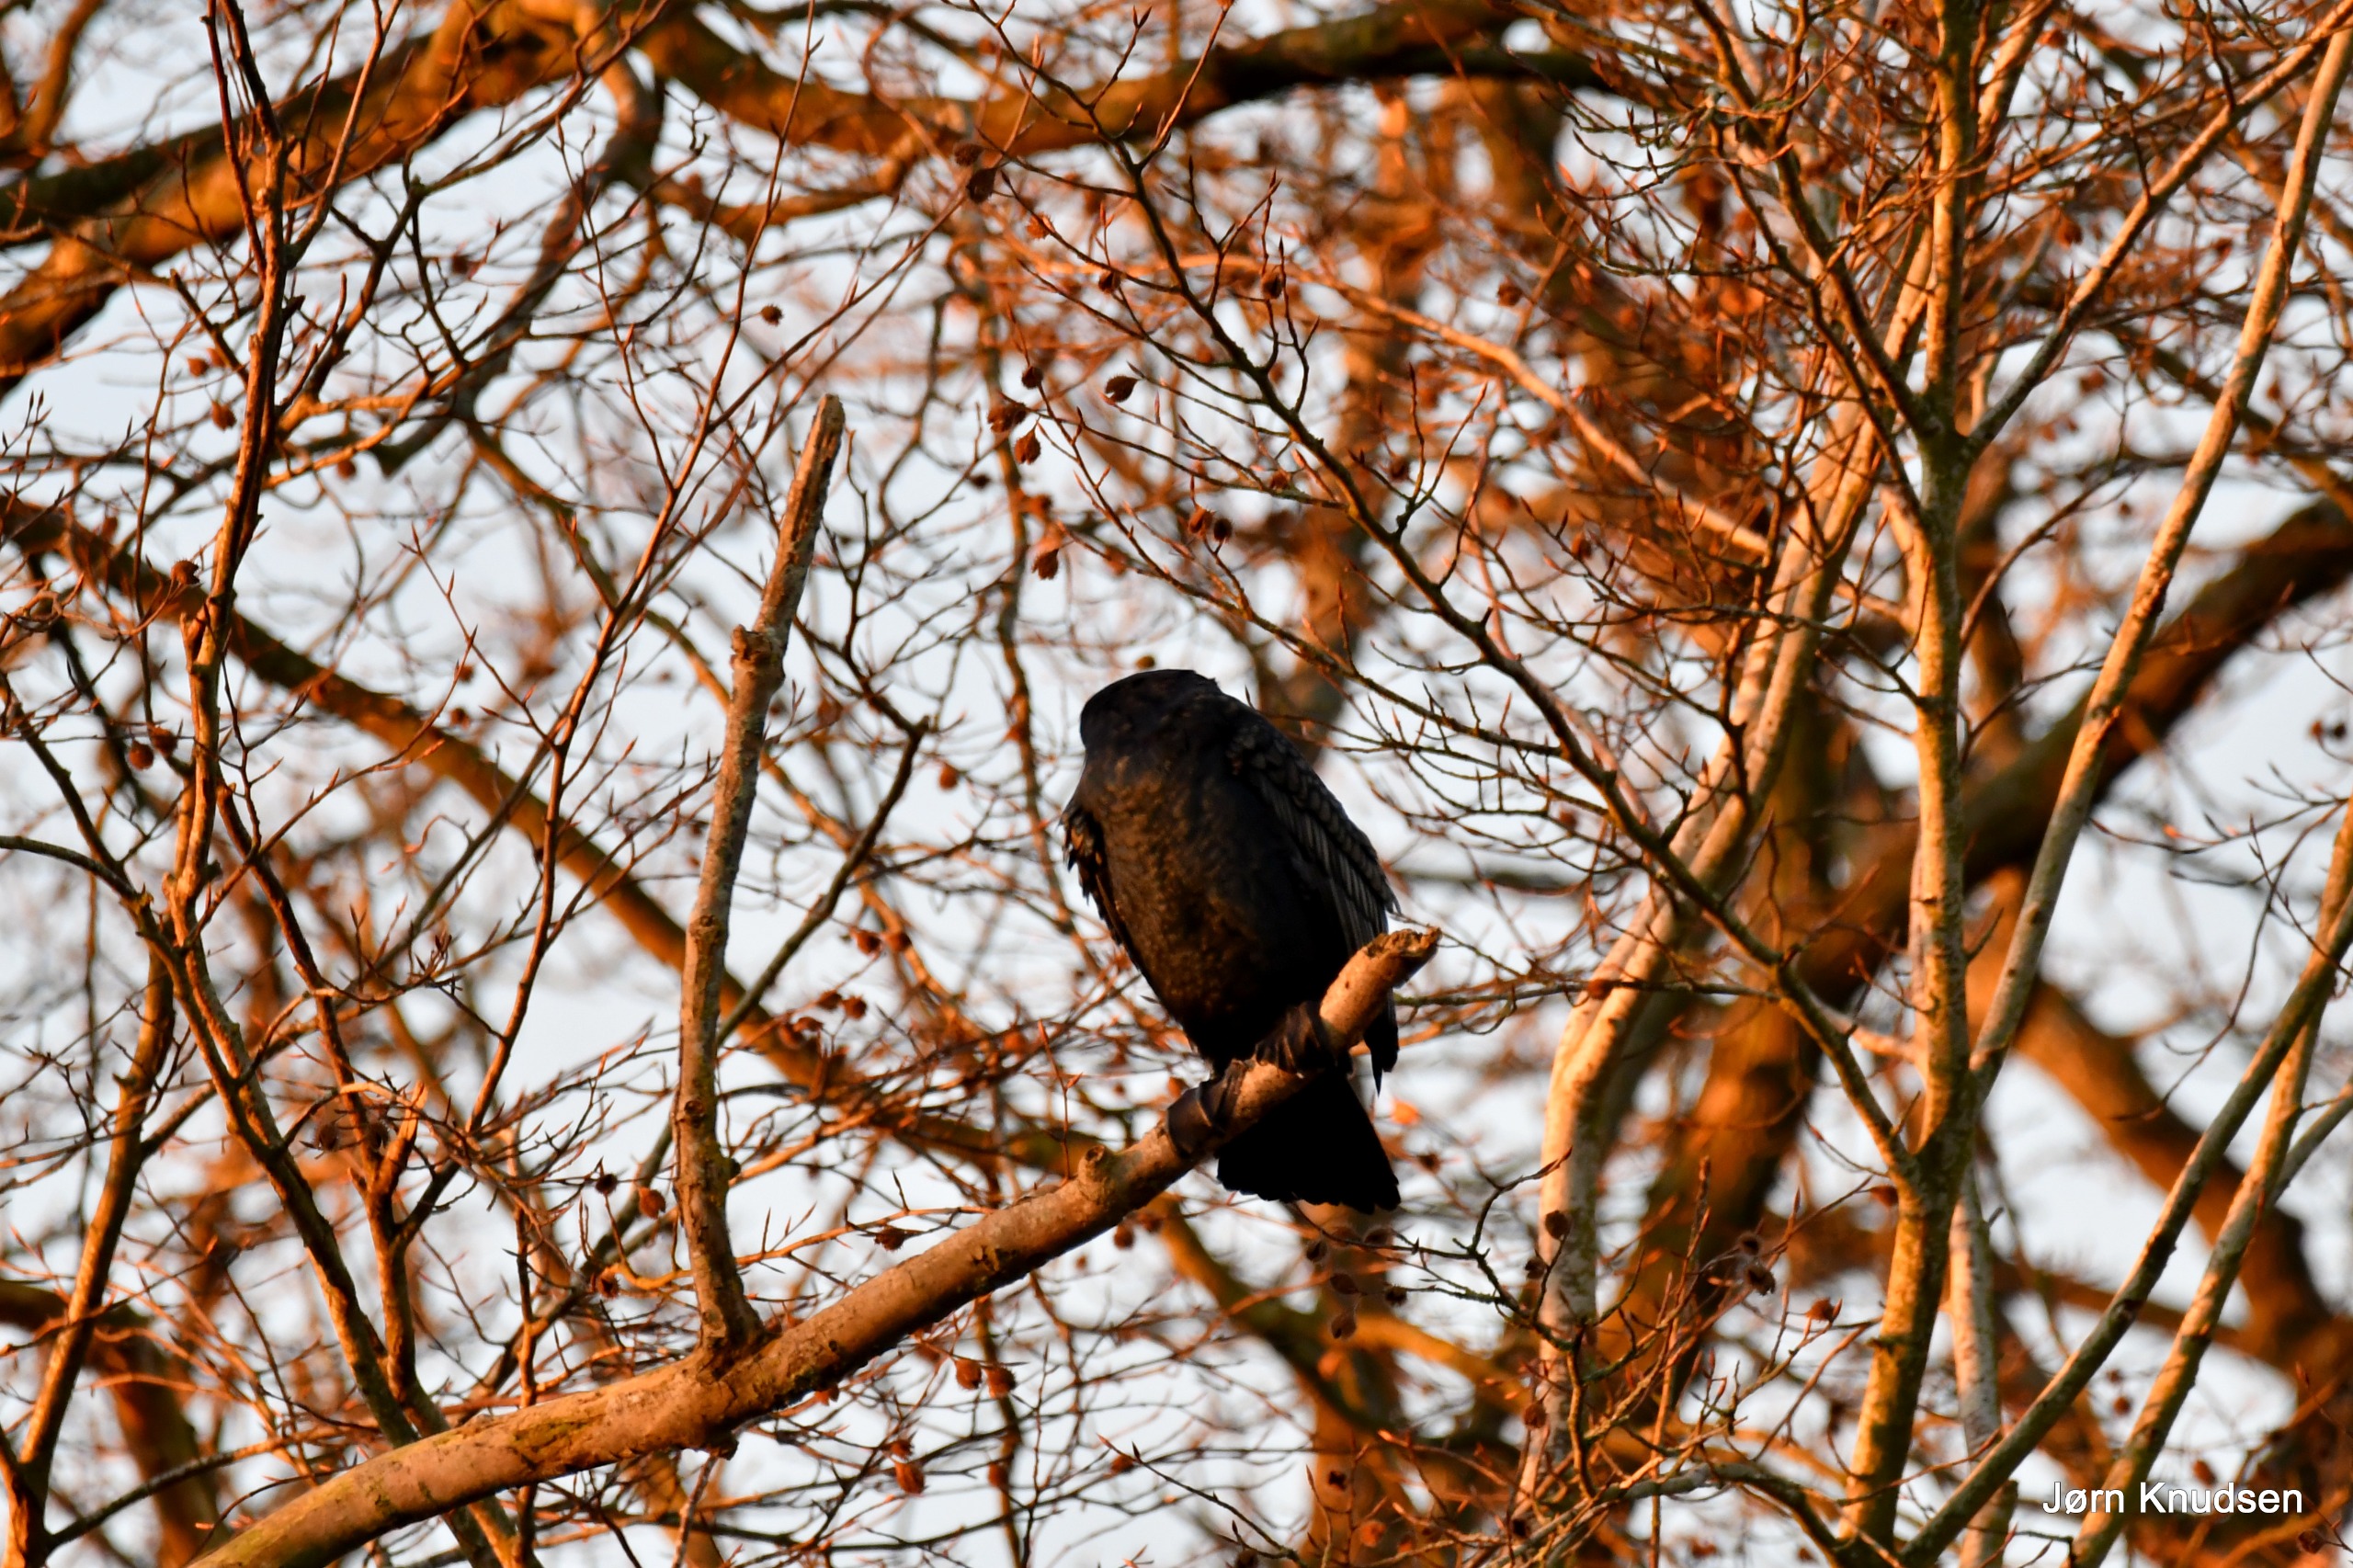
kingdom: Animalia
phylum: Chordata
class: Aves
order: Suliformes
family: Phalacrocoracidae
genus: Phalacrocorax
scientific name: Phalacrocorax carbo
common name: Skarv
